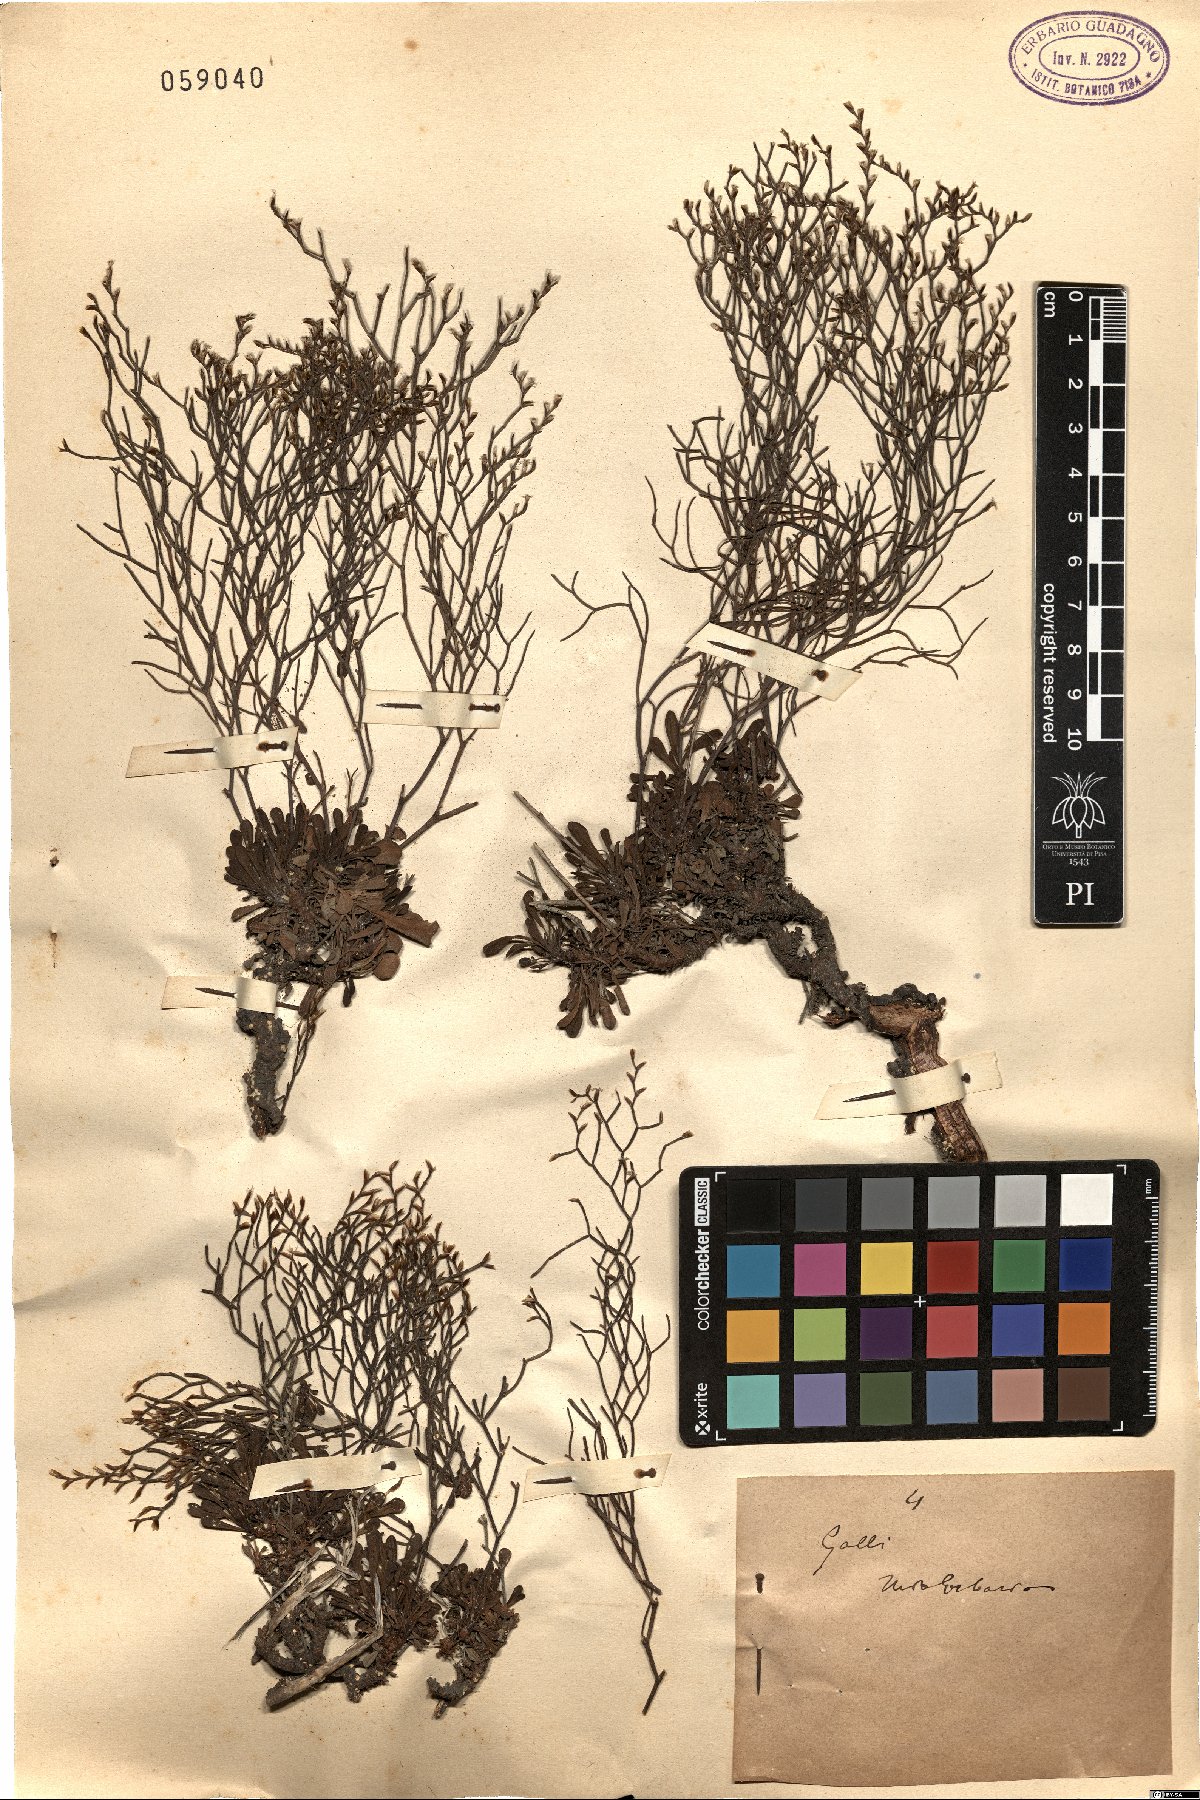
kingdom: Plantae
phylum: Tracheophyta
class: Magnoliopsida
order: Caryophyllales
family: Plumbaginaceae
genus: Armeria
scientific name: Armeria
